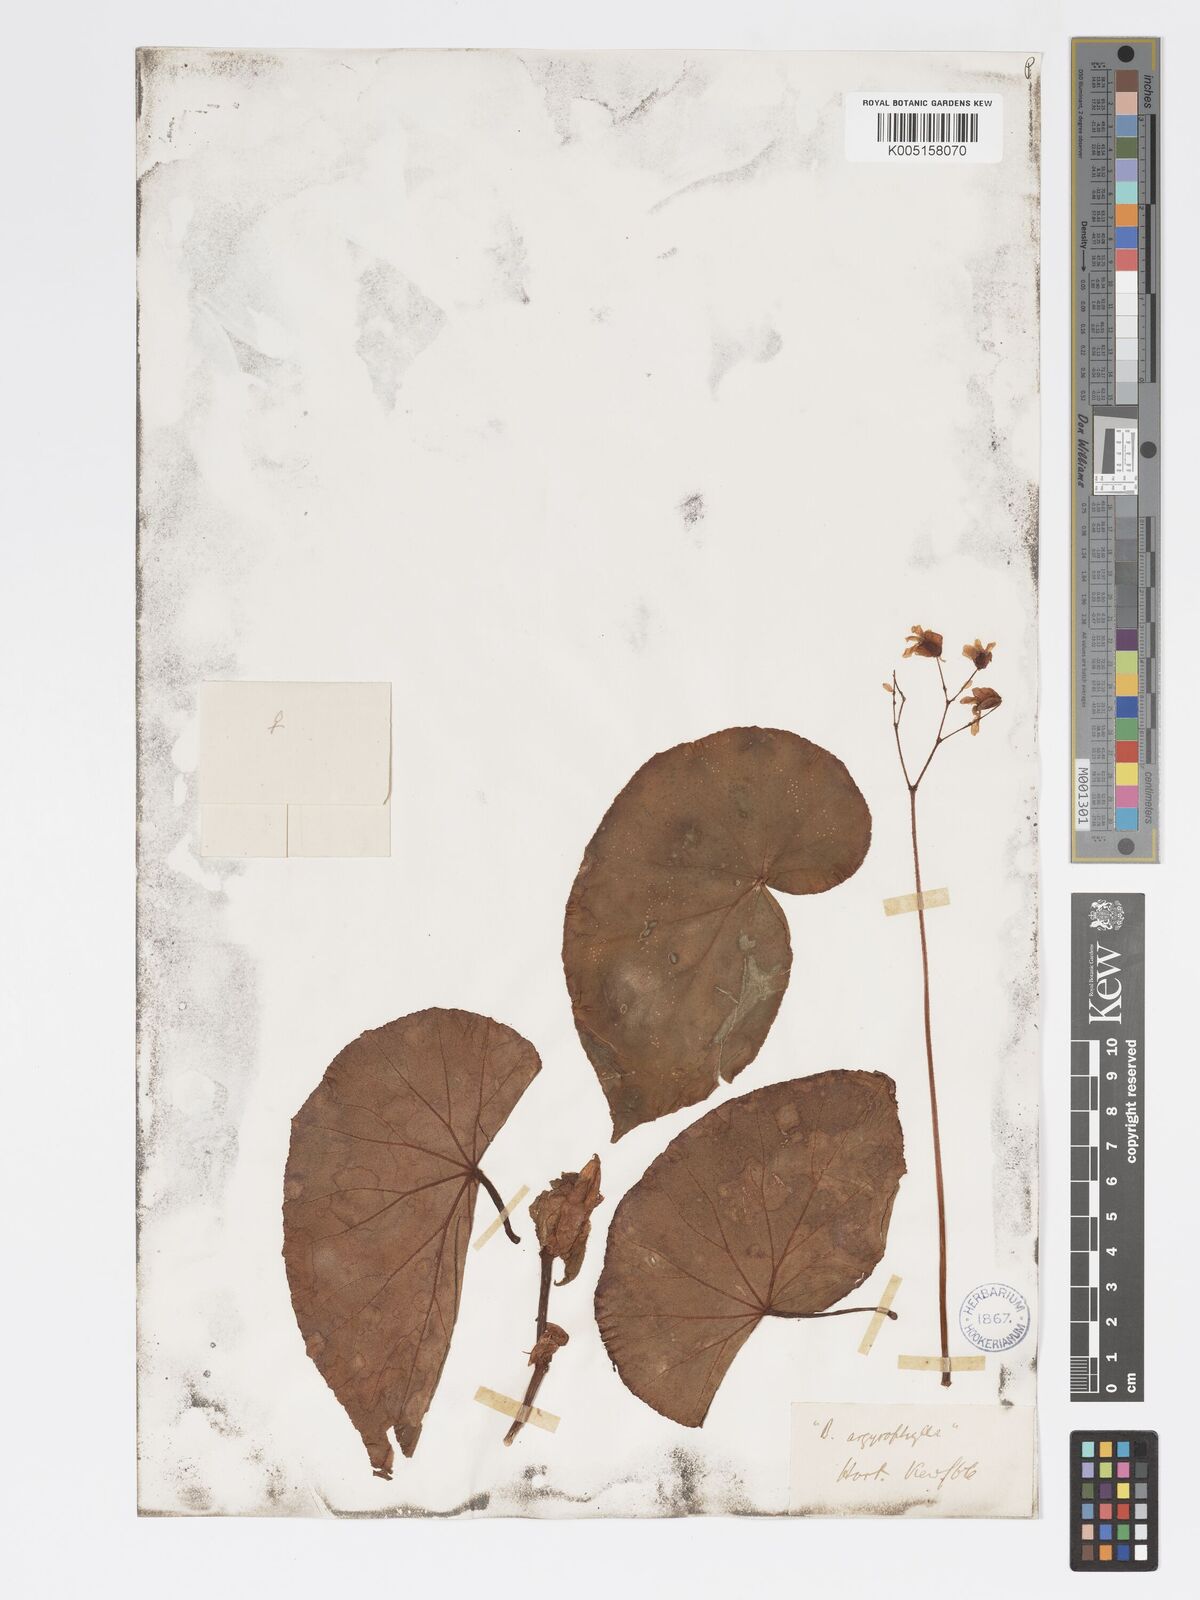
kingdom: Plantae
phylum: Tracheophyta
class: Magnoliopsida
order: Cucurbitales
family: Begoniaceae
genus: Begonia
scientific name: Begonia
